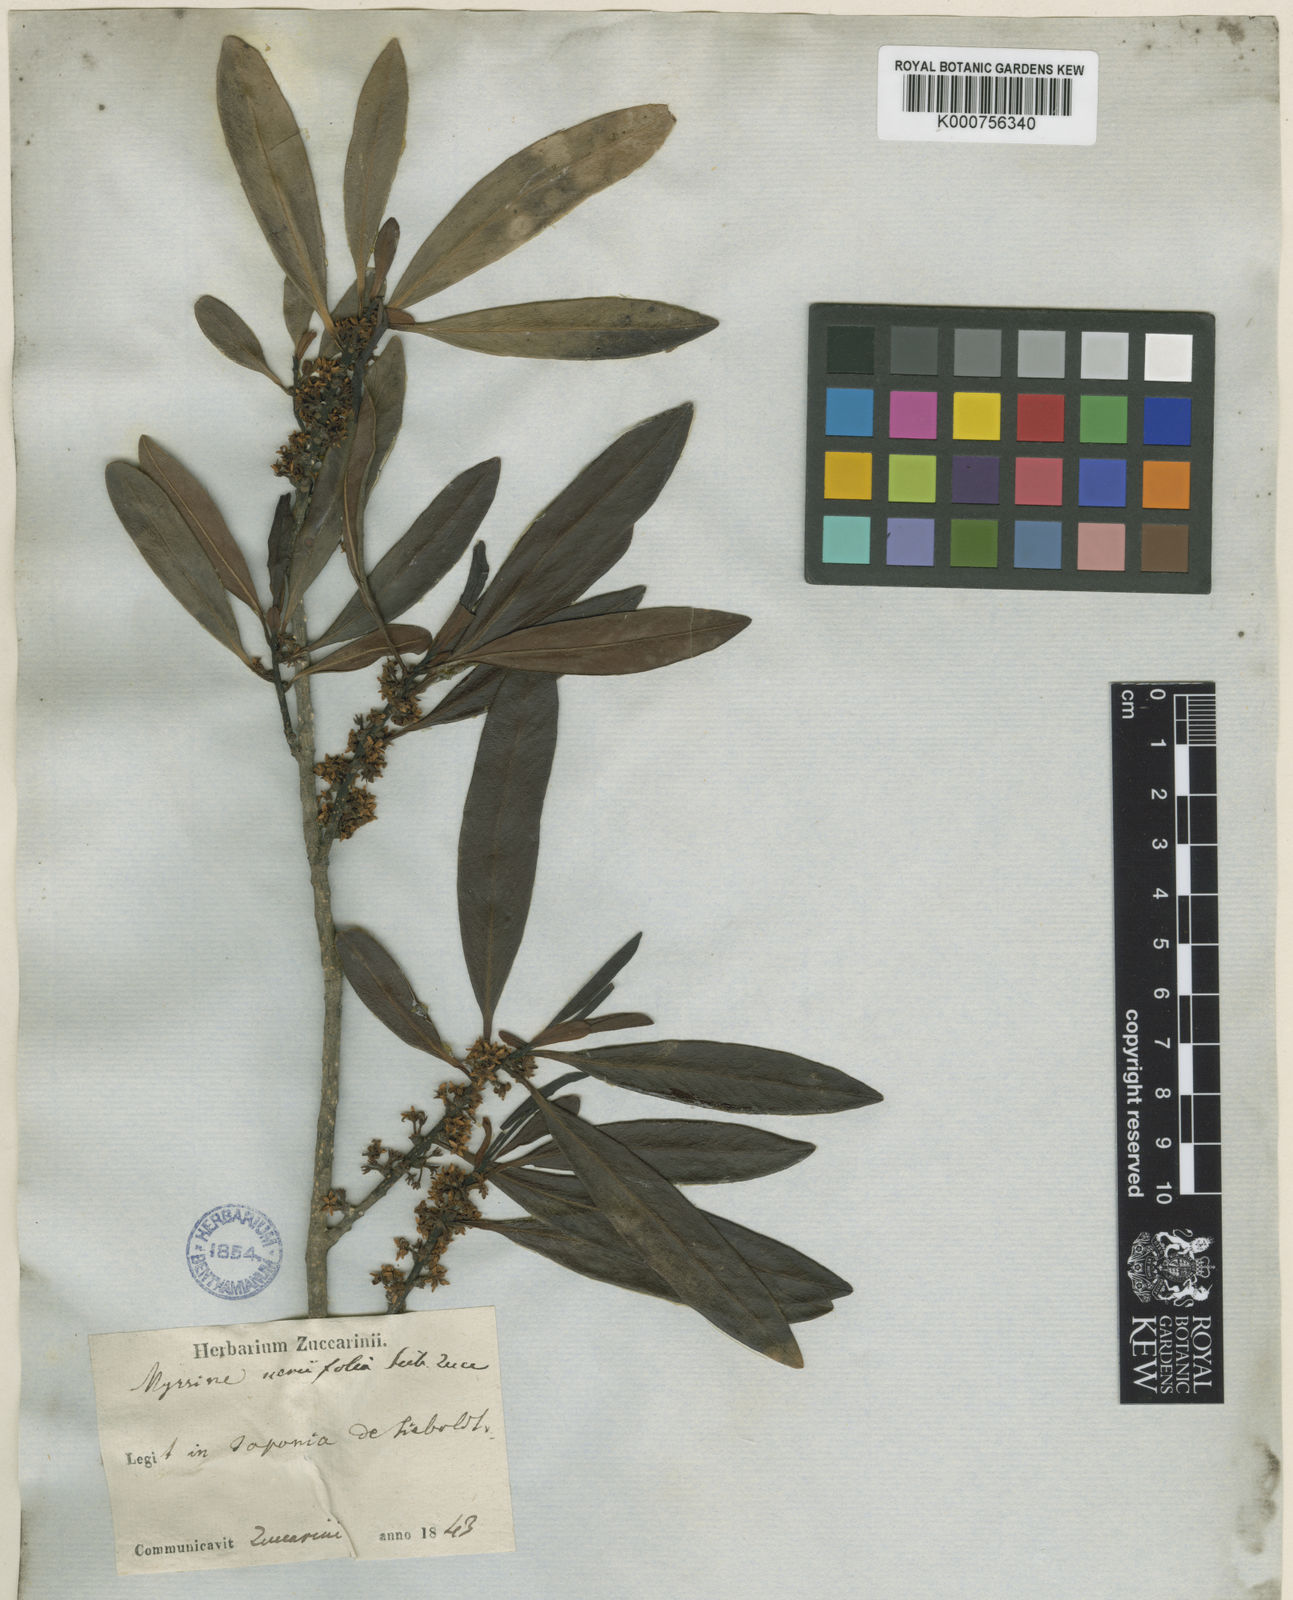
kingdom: Plantae
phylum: Tracheophyta
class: Magnoliopsida
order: Ericales
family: Primulaceae
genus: Myrsine
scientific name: Myrsine
